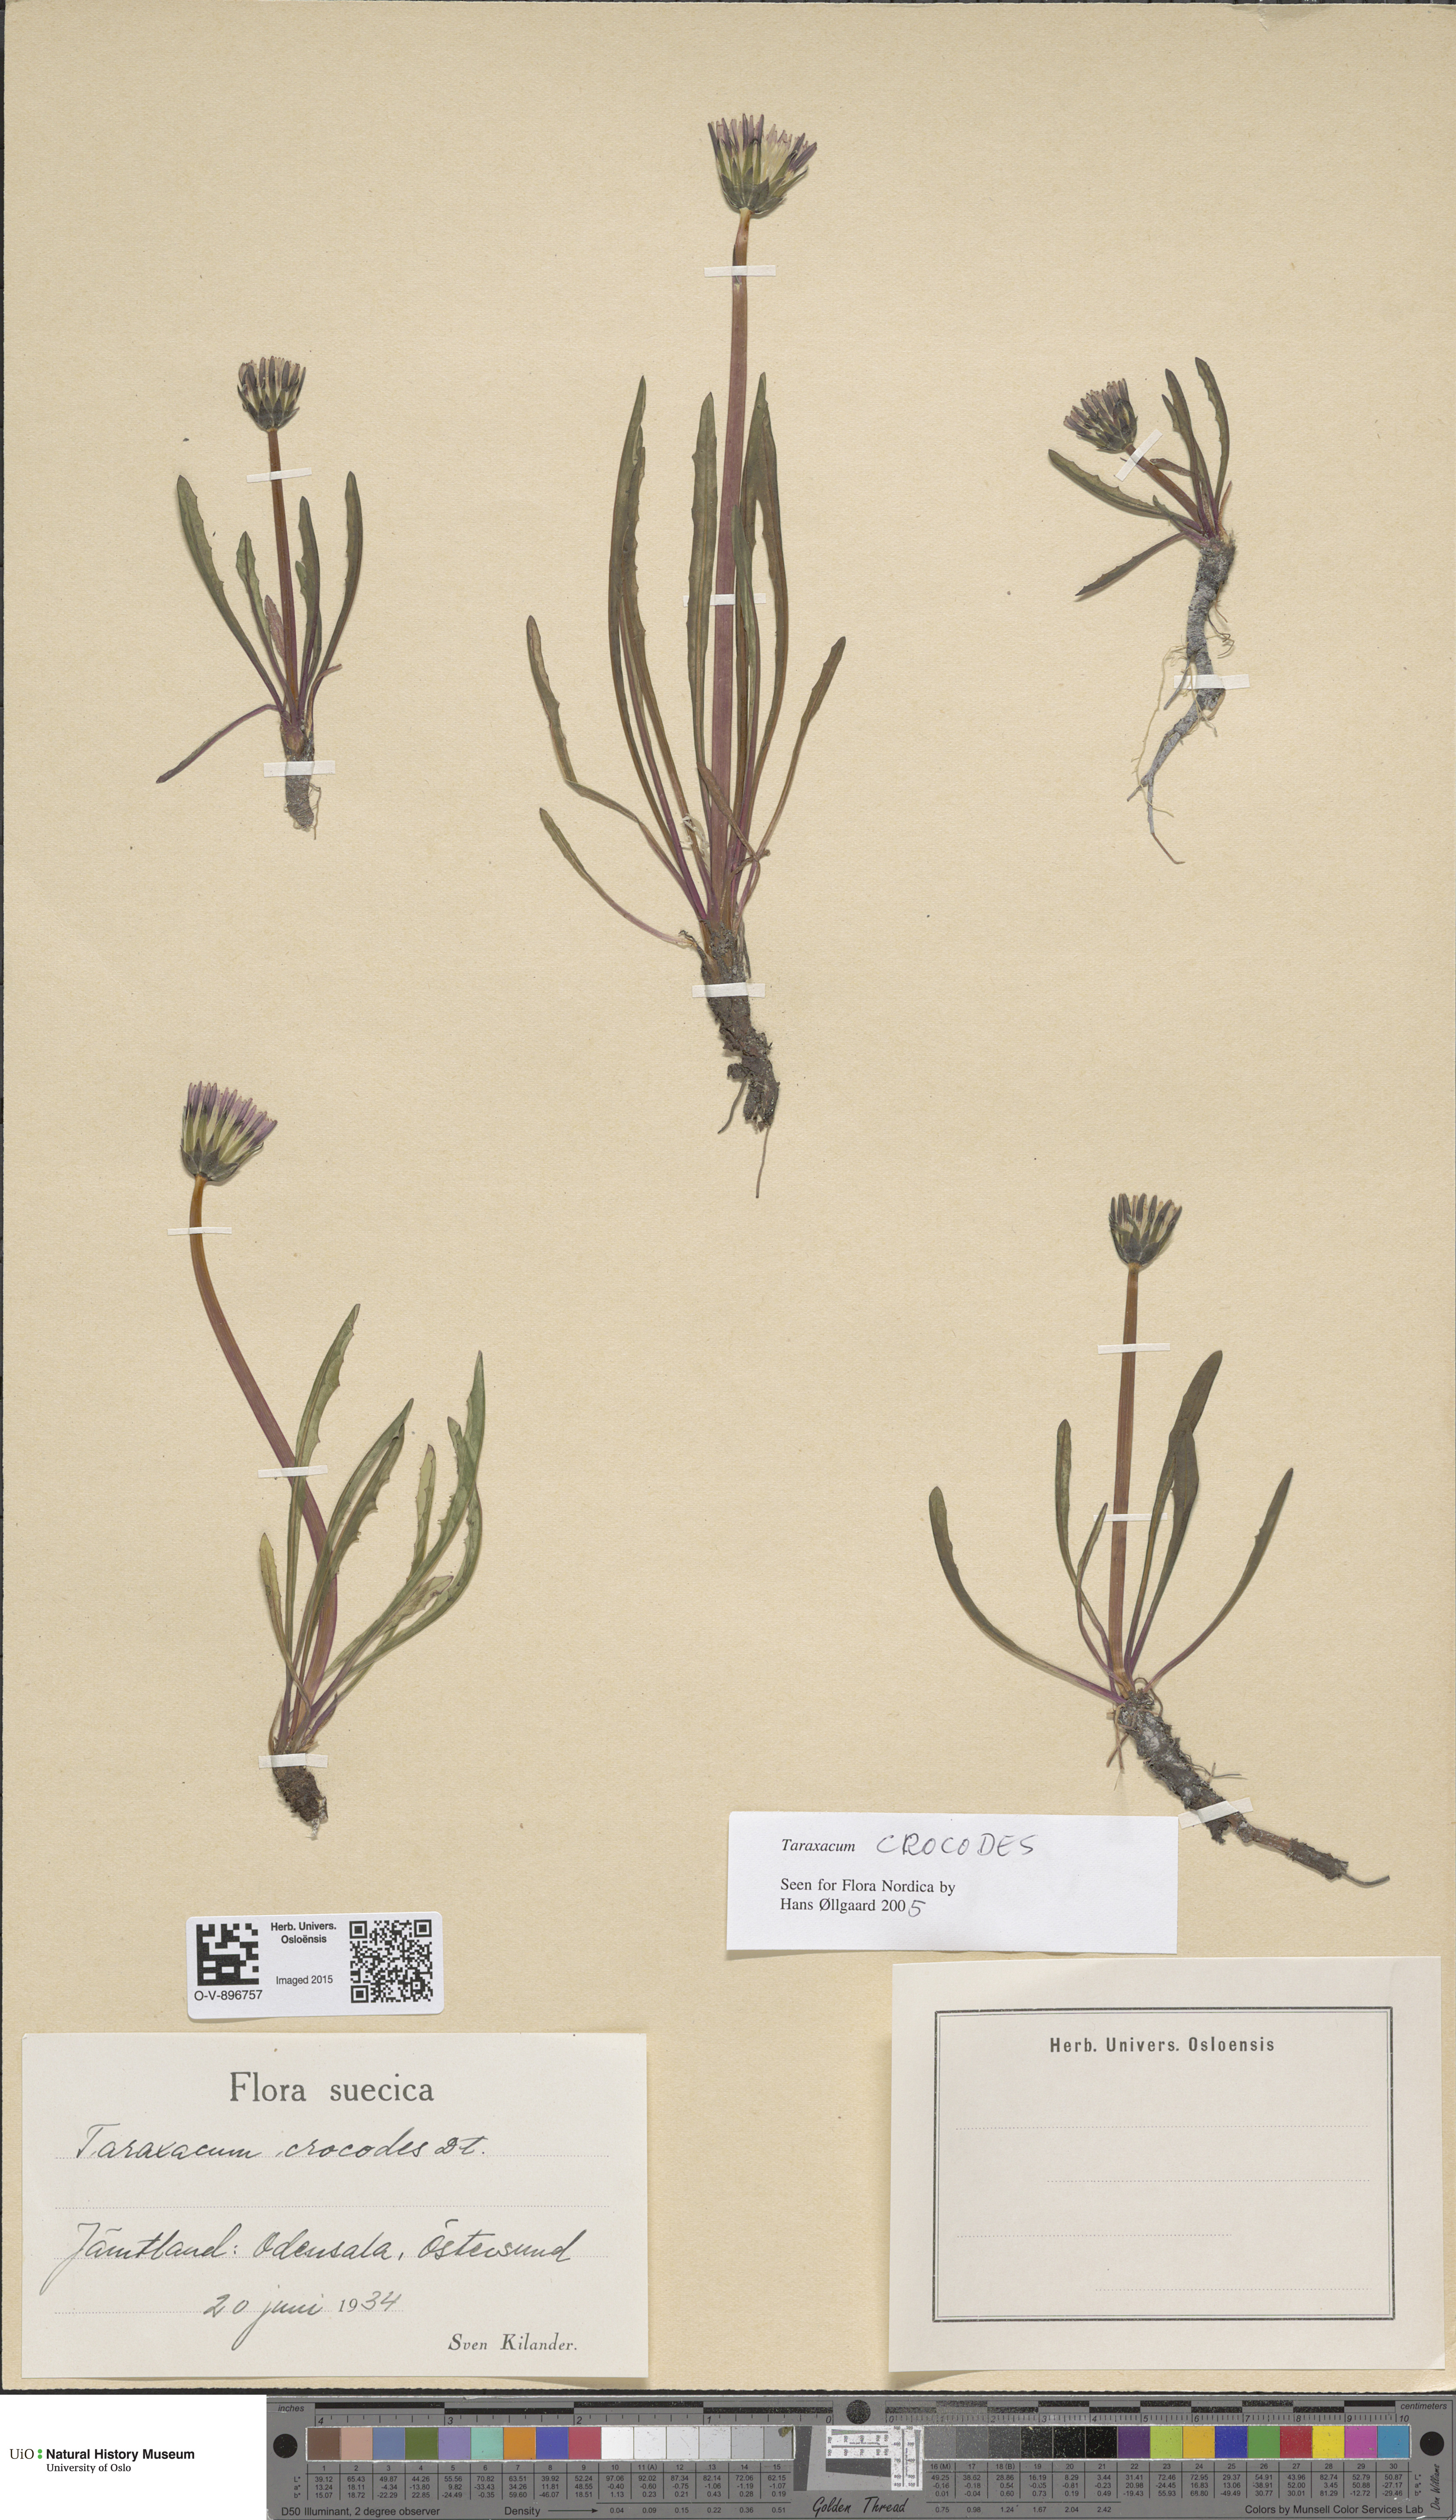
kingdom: Plantae
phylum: Tracheophyta
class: Magnoliopsida
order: Asterales
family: Asteraceae
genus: Taraxacum
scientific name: Taraxacum crocodes
